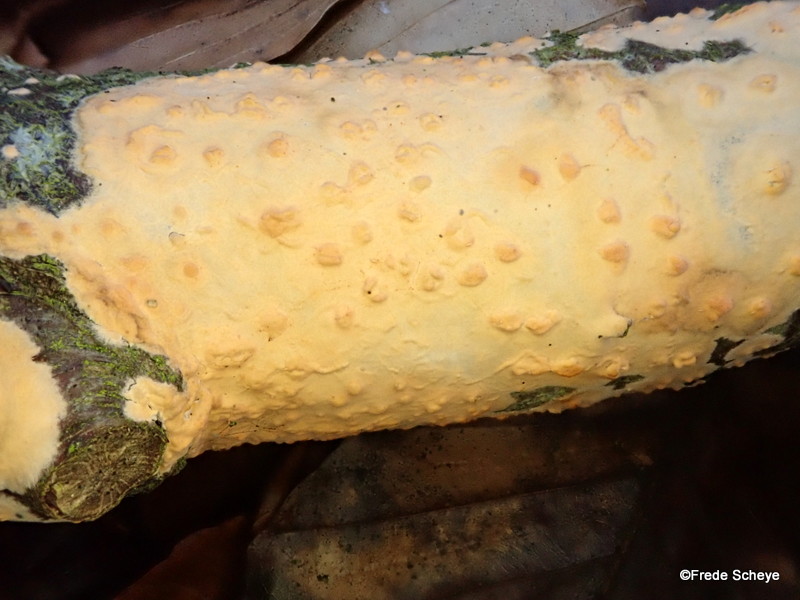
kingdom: Fungi
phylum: Basidiomycota
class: Agaricomycetes
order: Russulales
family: Peniophoraceae
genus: Peniophora
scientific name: Peniophora incarnata
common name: laksefarvet voksskind
